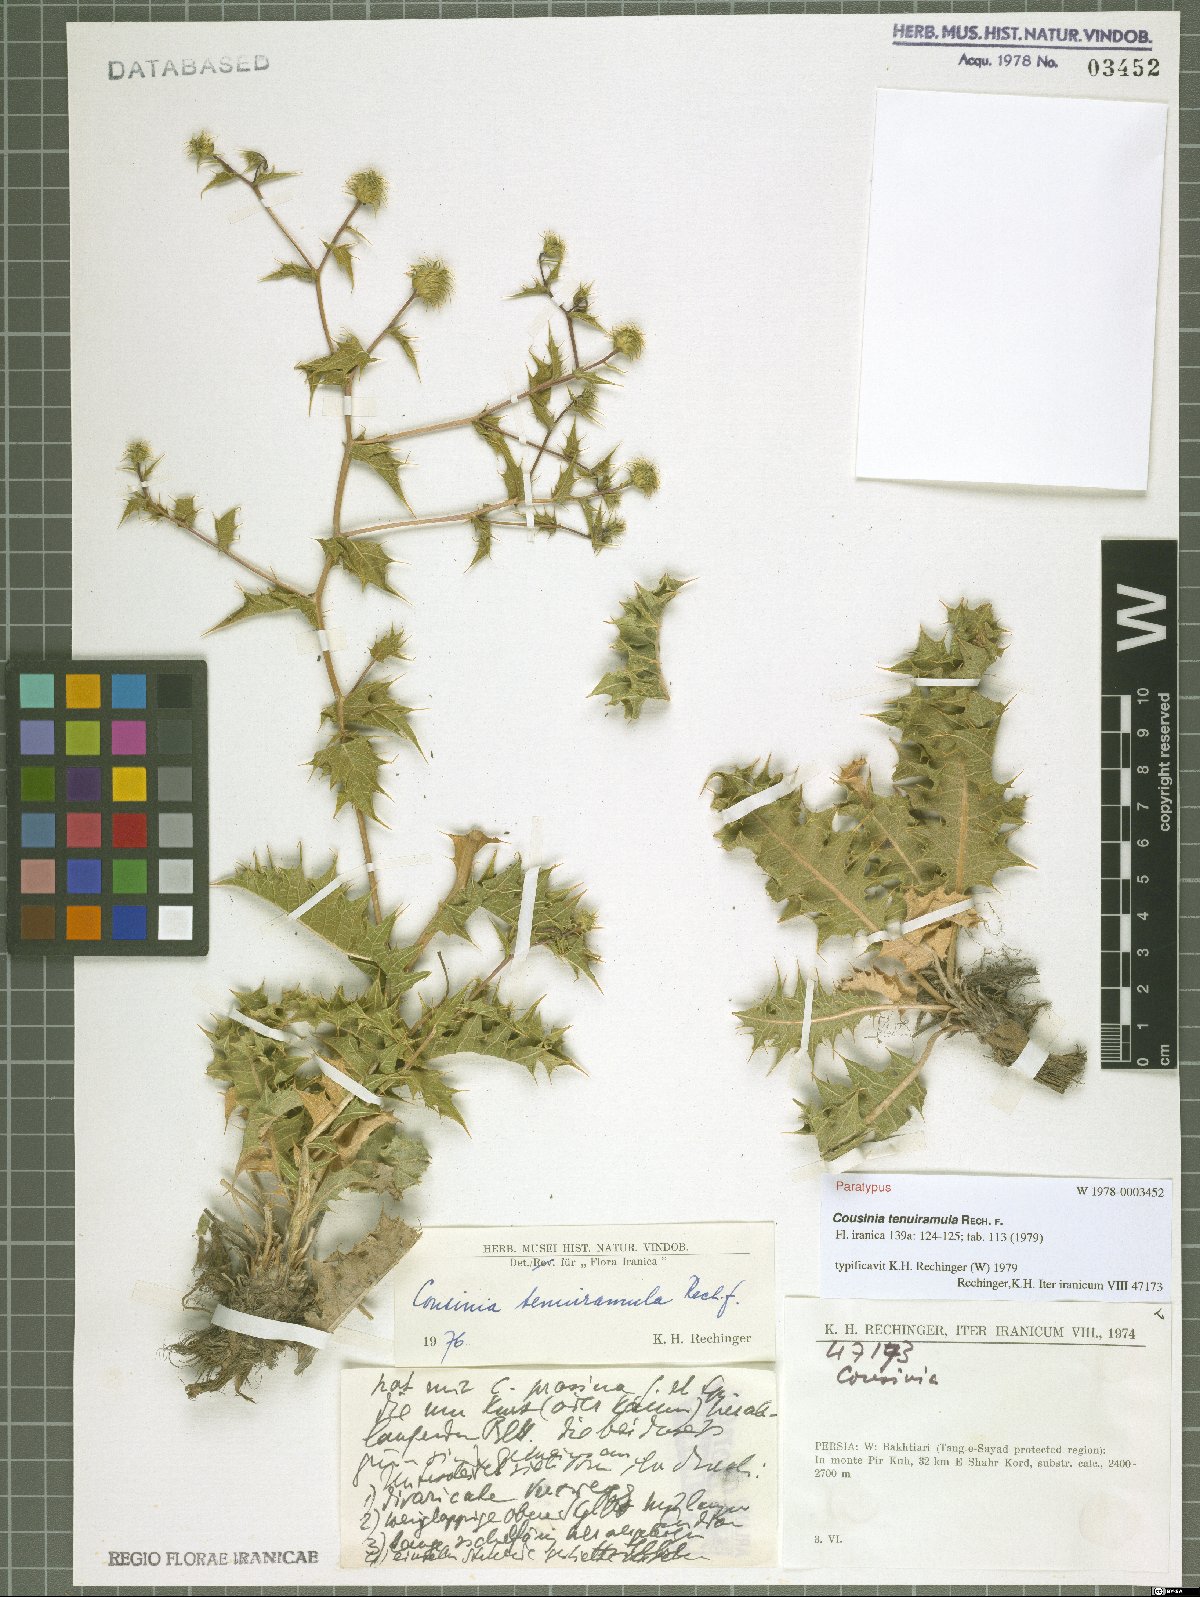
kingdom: Plantae
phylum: Tracheophyta
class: Magnoliopsida
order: Asterales
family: Asteraceae
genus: Cousinia
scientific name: Cousinia tenuiramula
